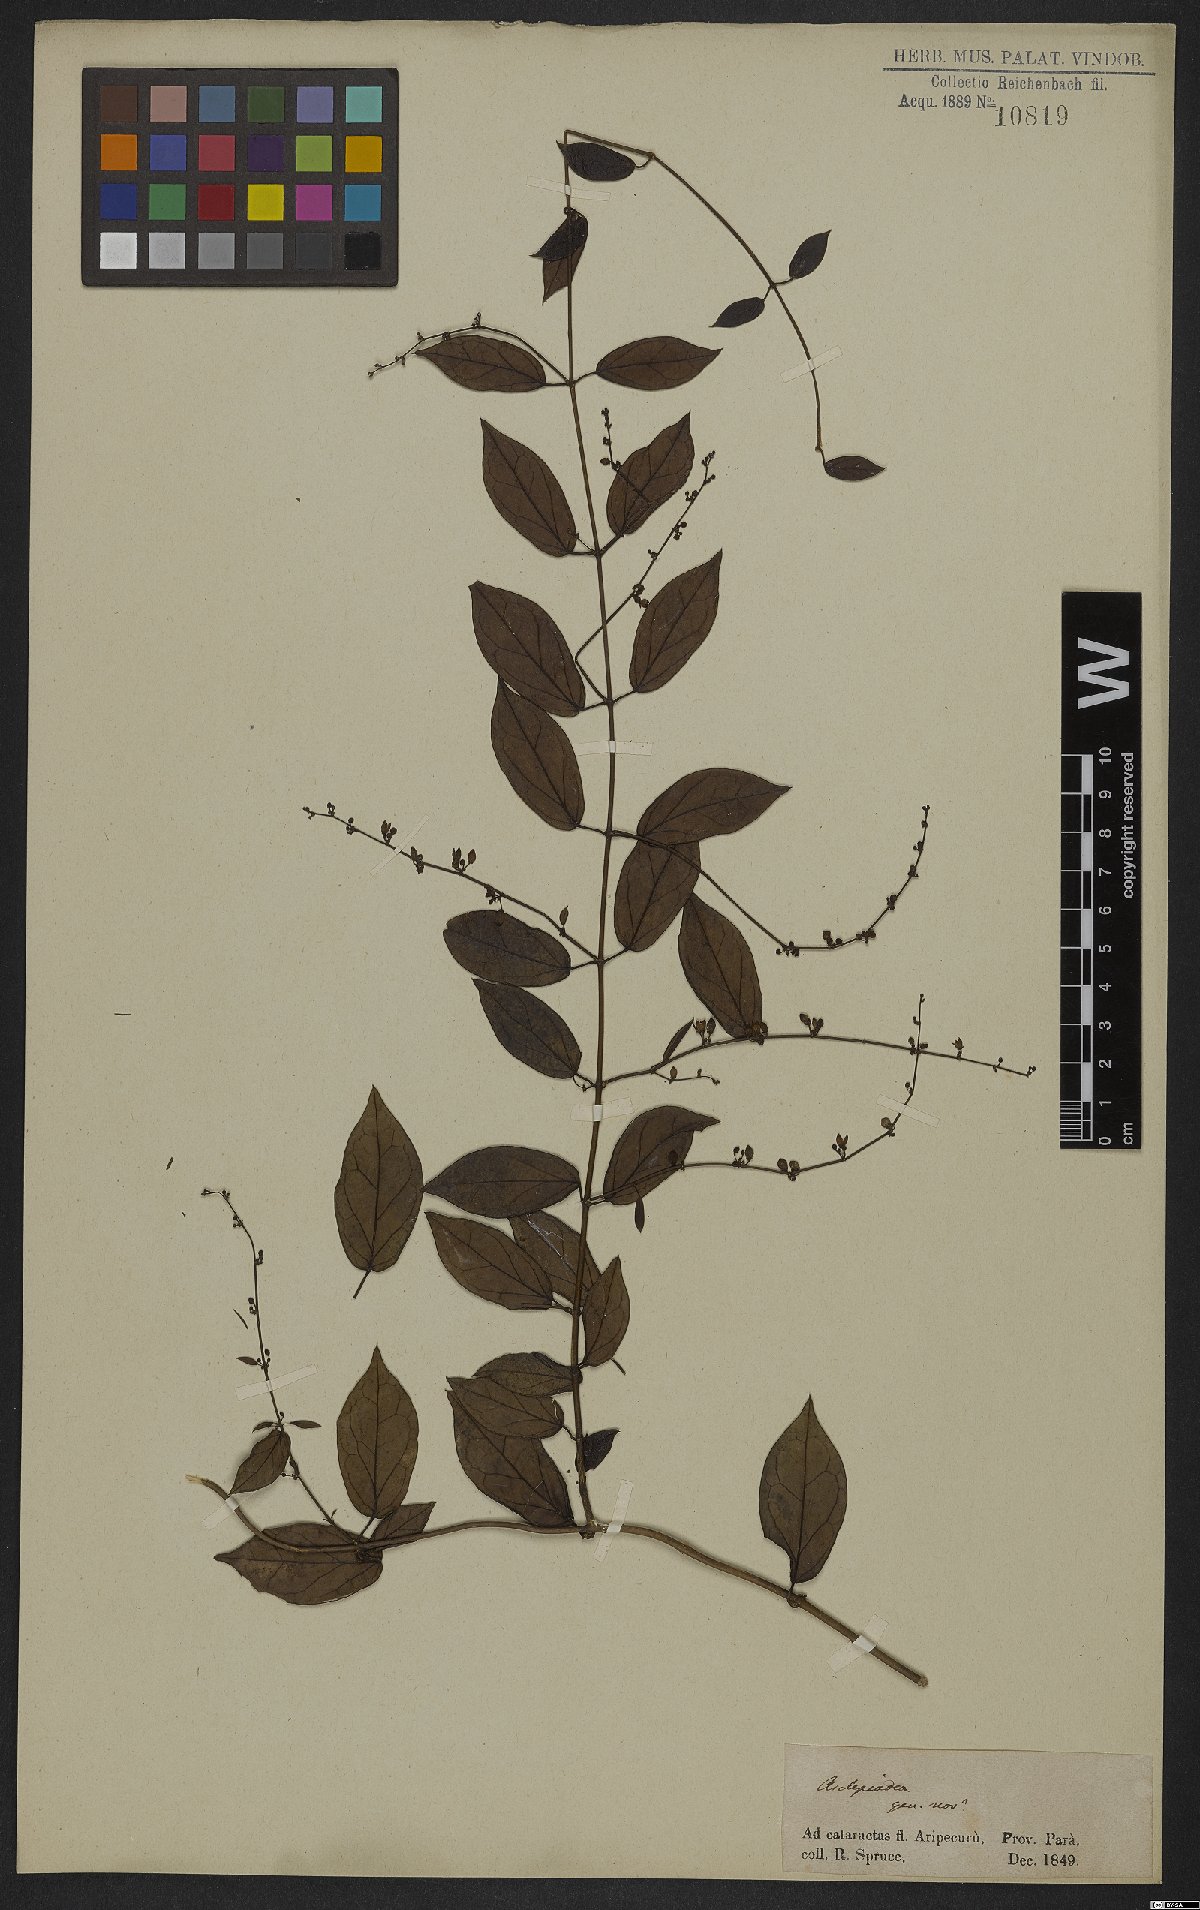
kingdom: Plantae
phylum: Tracheophyta
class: Magnoliopsida
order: Gentianales
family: Apocynaceae
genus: Tassadia
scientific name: Tassadia colubrina
